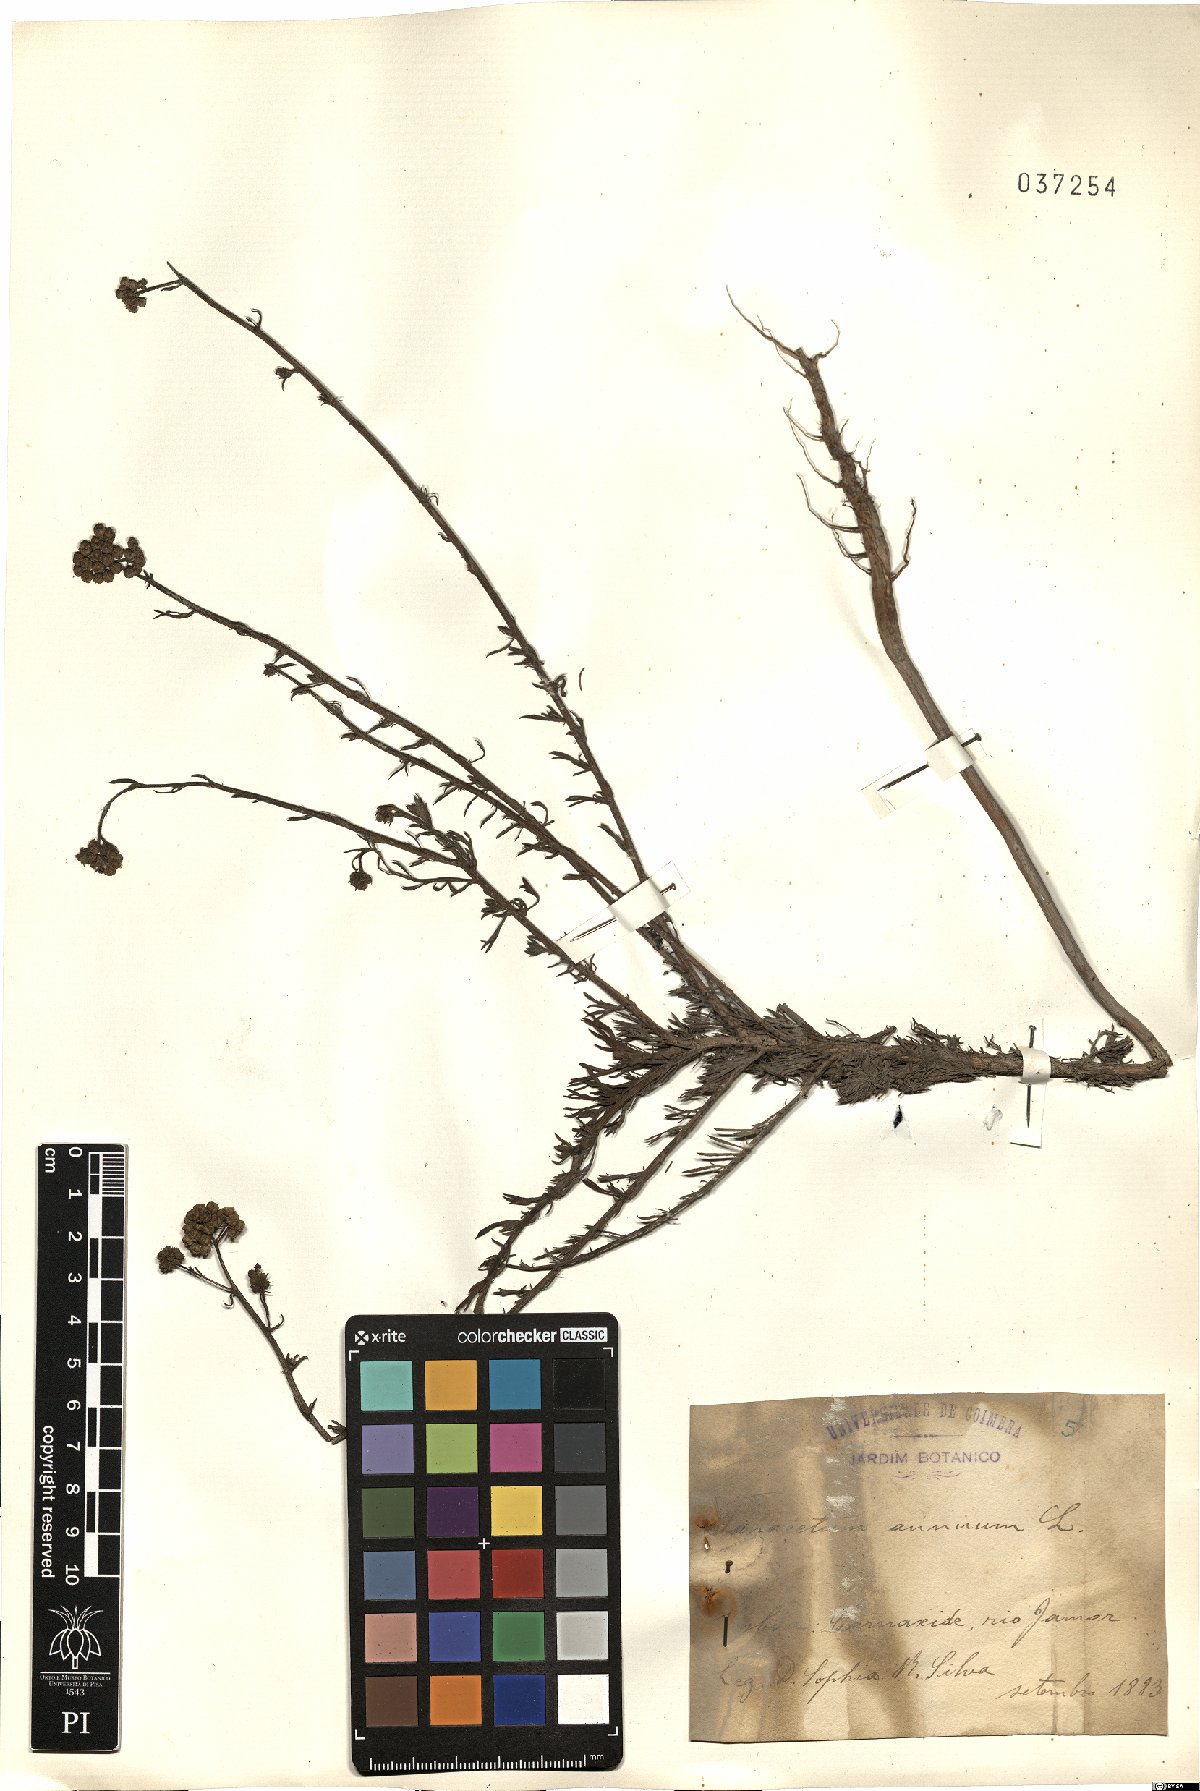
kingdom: Plantae
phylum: Tracheophyta
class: Magnoliopsida
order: Asterales
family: Asteraceae
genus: Vogtia
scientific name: Vogtia annua
